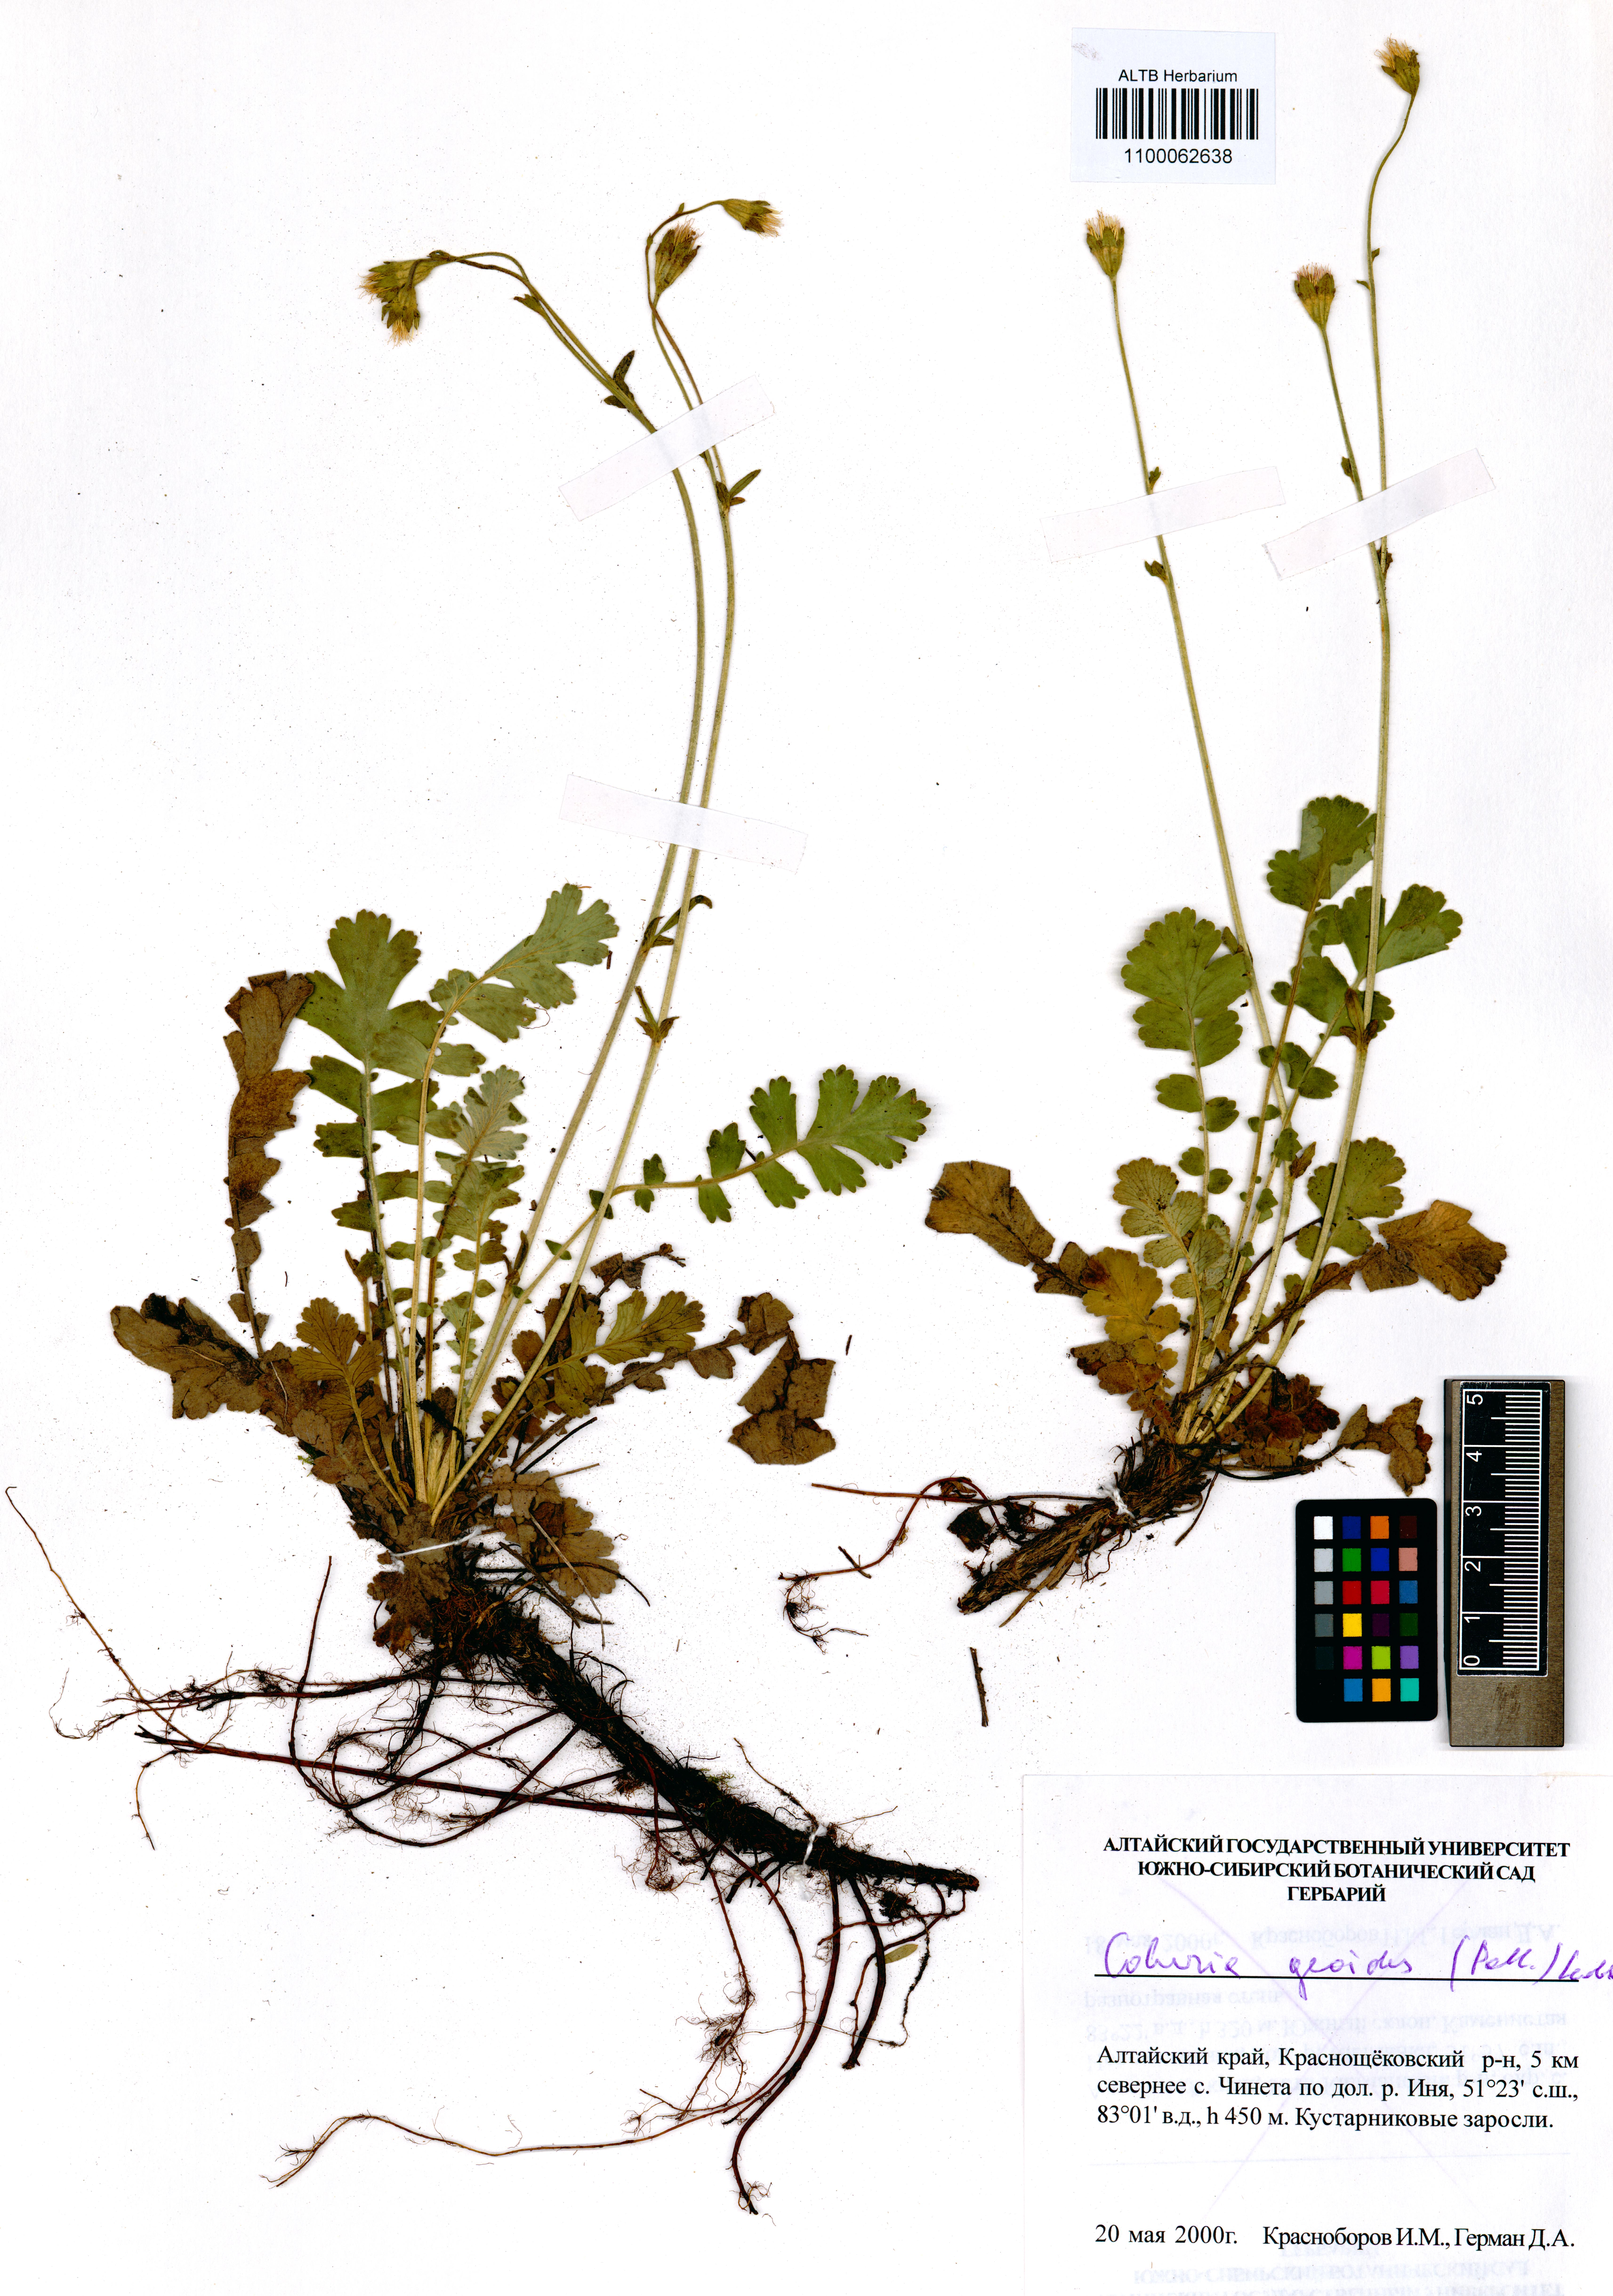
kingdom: Plantae
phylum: Tracheophyta
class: Magnoliopsida
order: Rosales
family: Rosaceae
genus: Geum
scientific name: Geum geoides
